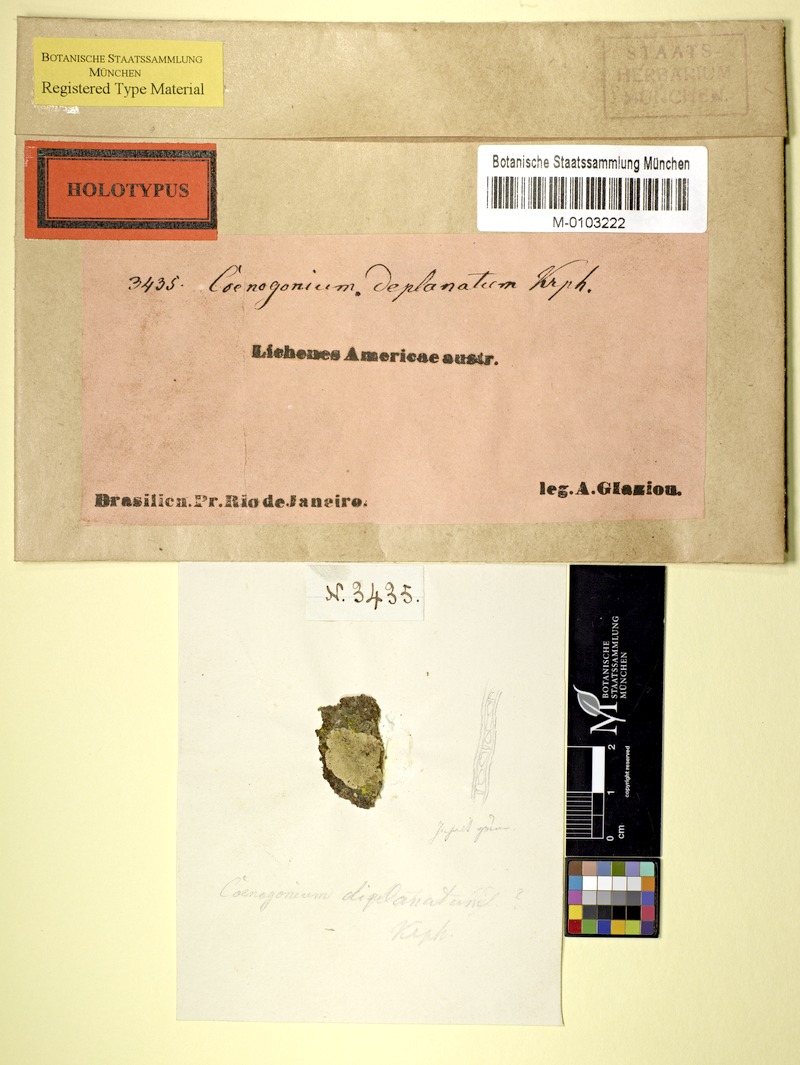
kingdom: Fungi
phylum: Ascomycota
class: Lecanoromycetes
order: Ostropales
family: Coenogoniaceae
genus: Coenogonium
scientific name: Coenogonium
